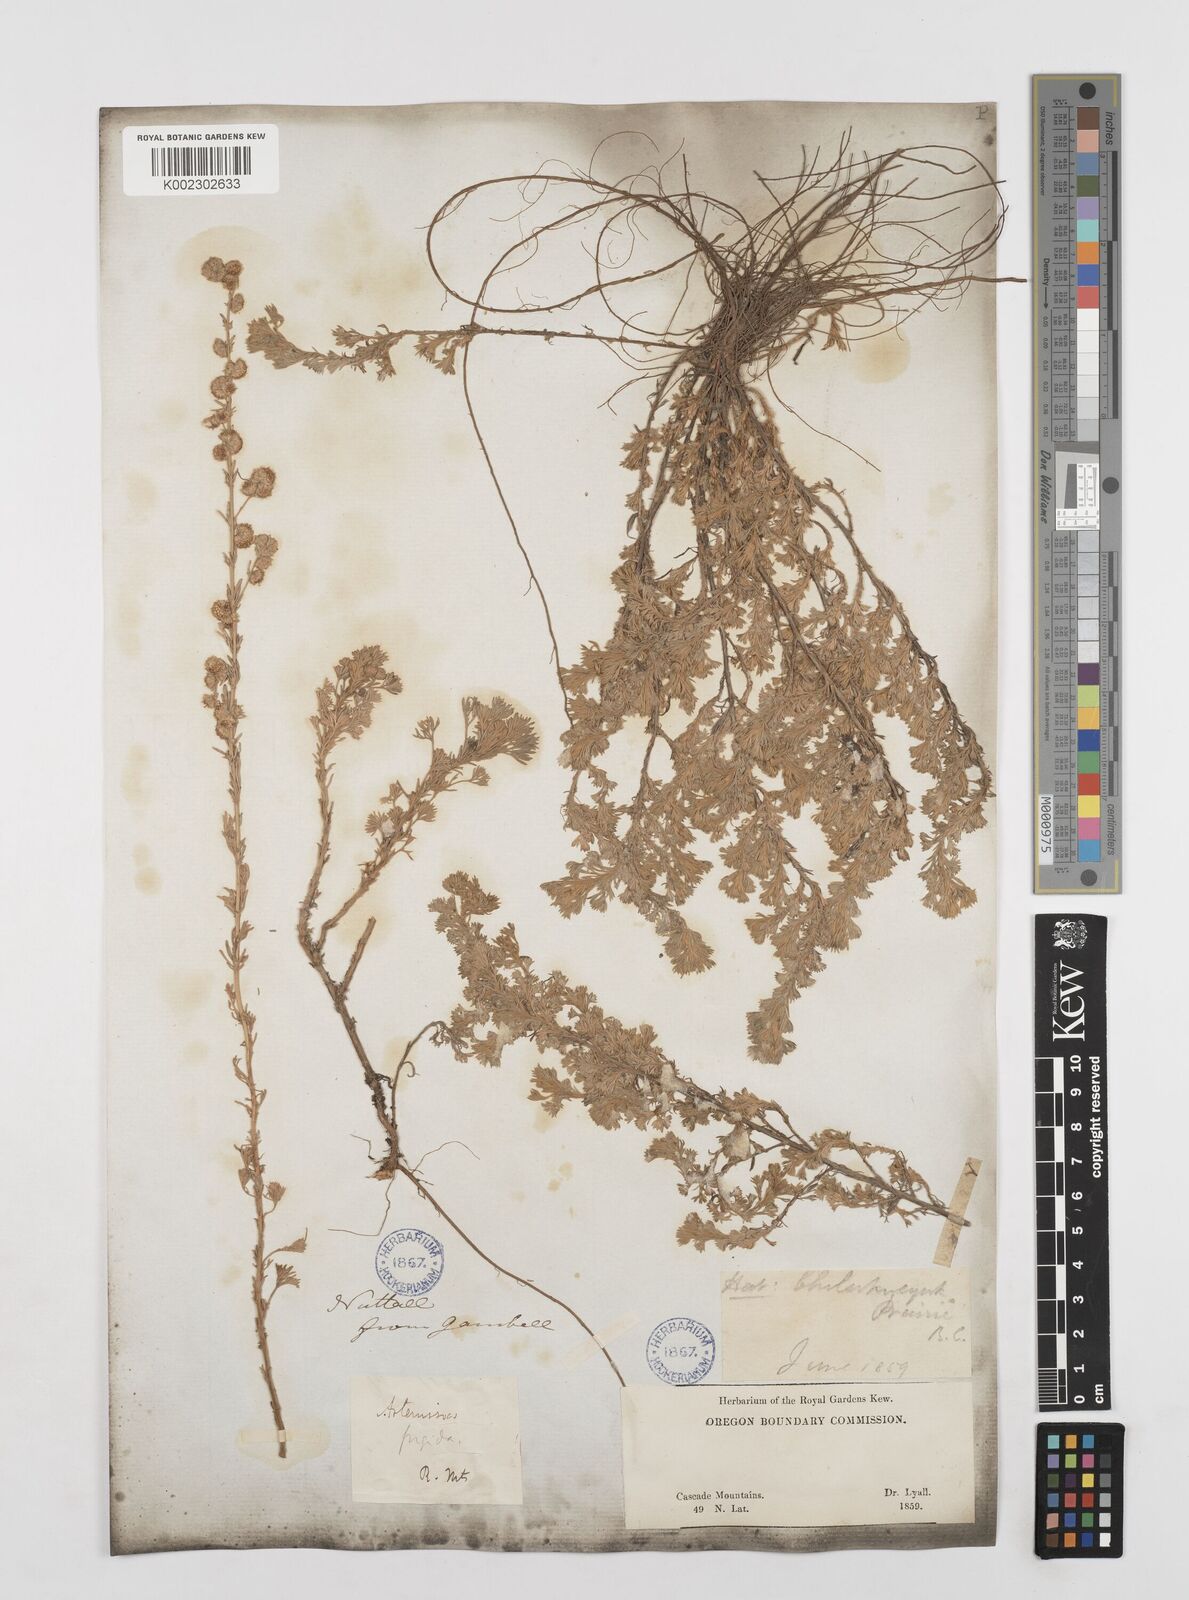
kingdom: Plantae
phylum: Tracheophyta
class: Magnoliopsida
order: Asterales
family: Asteraceae
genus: Artemisia
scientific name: Artemisia frigida
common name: Prairie sagewort
